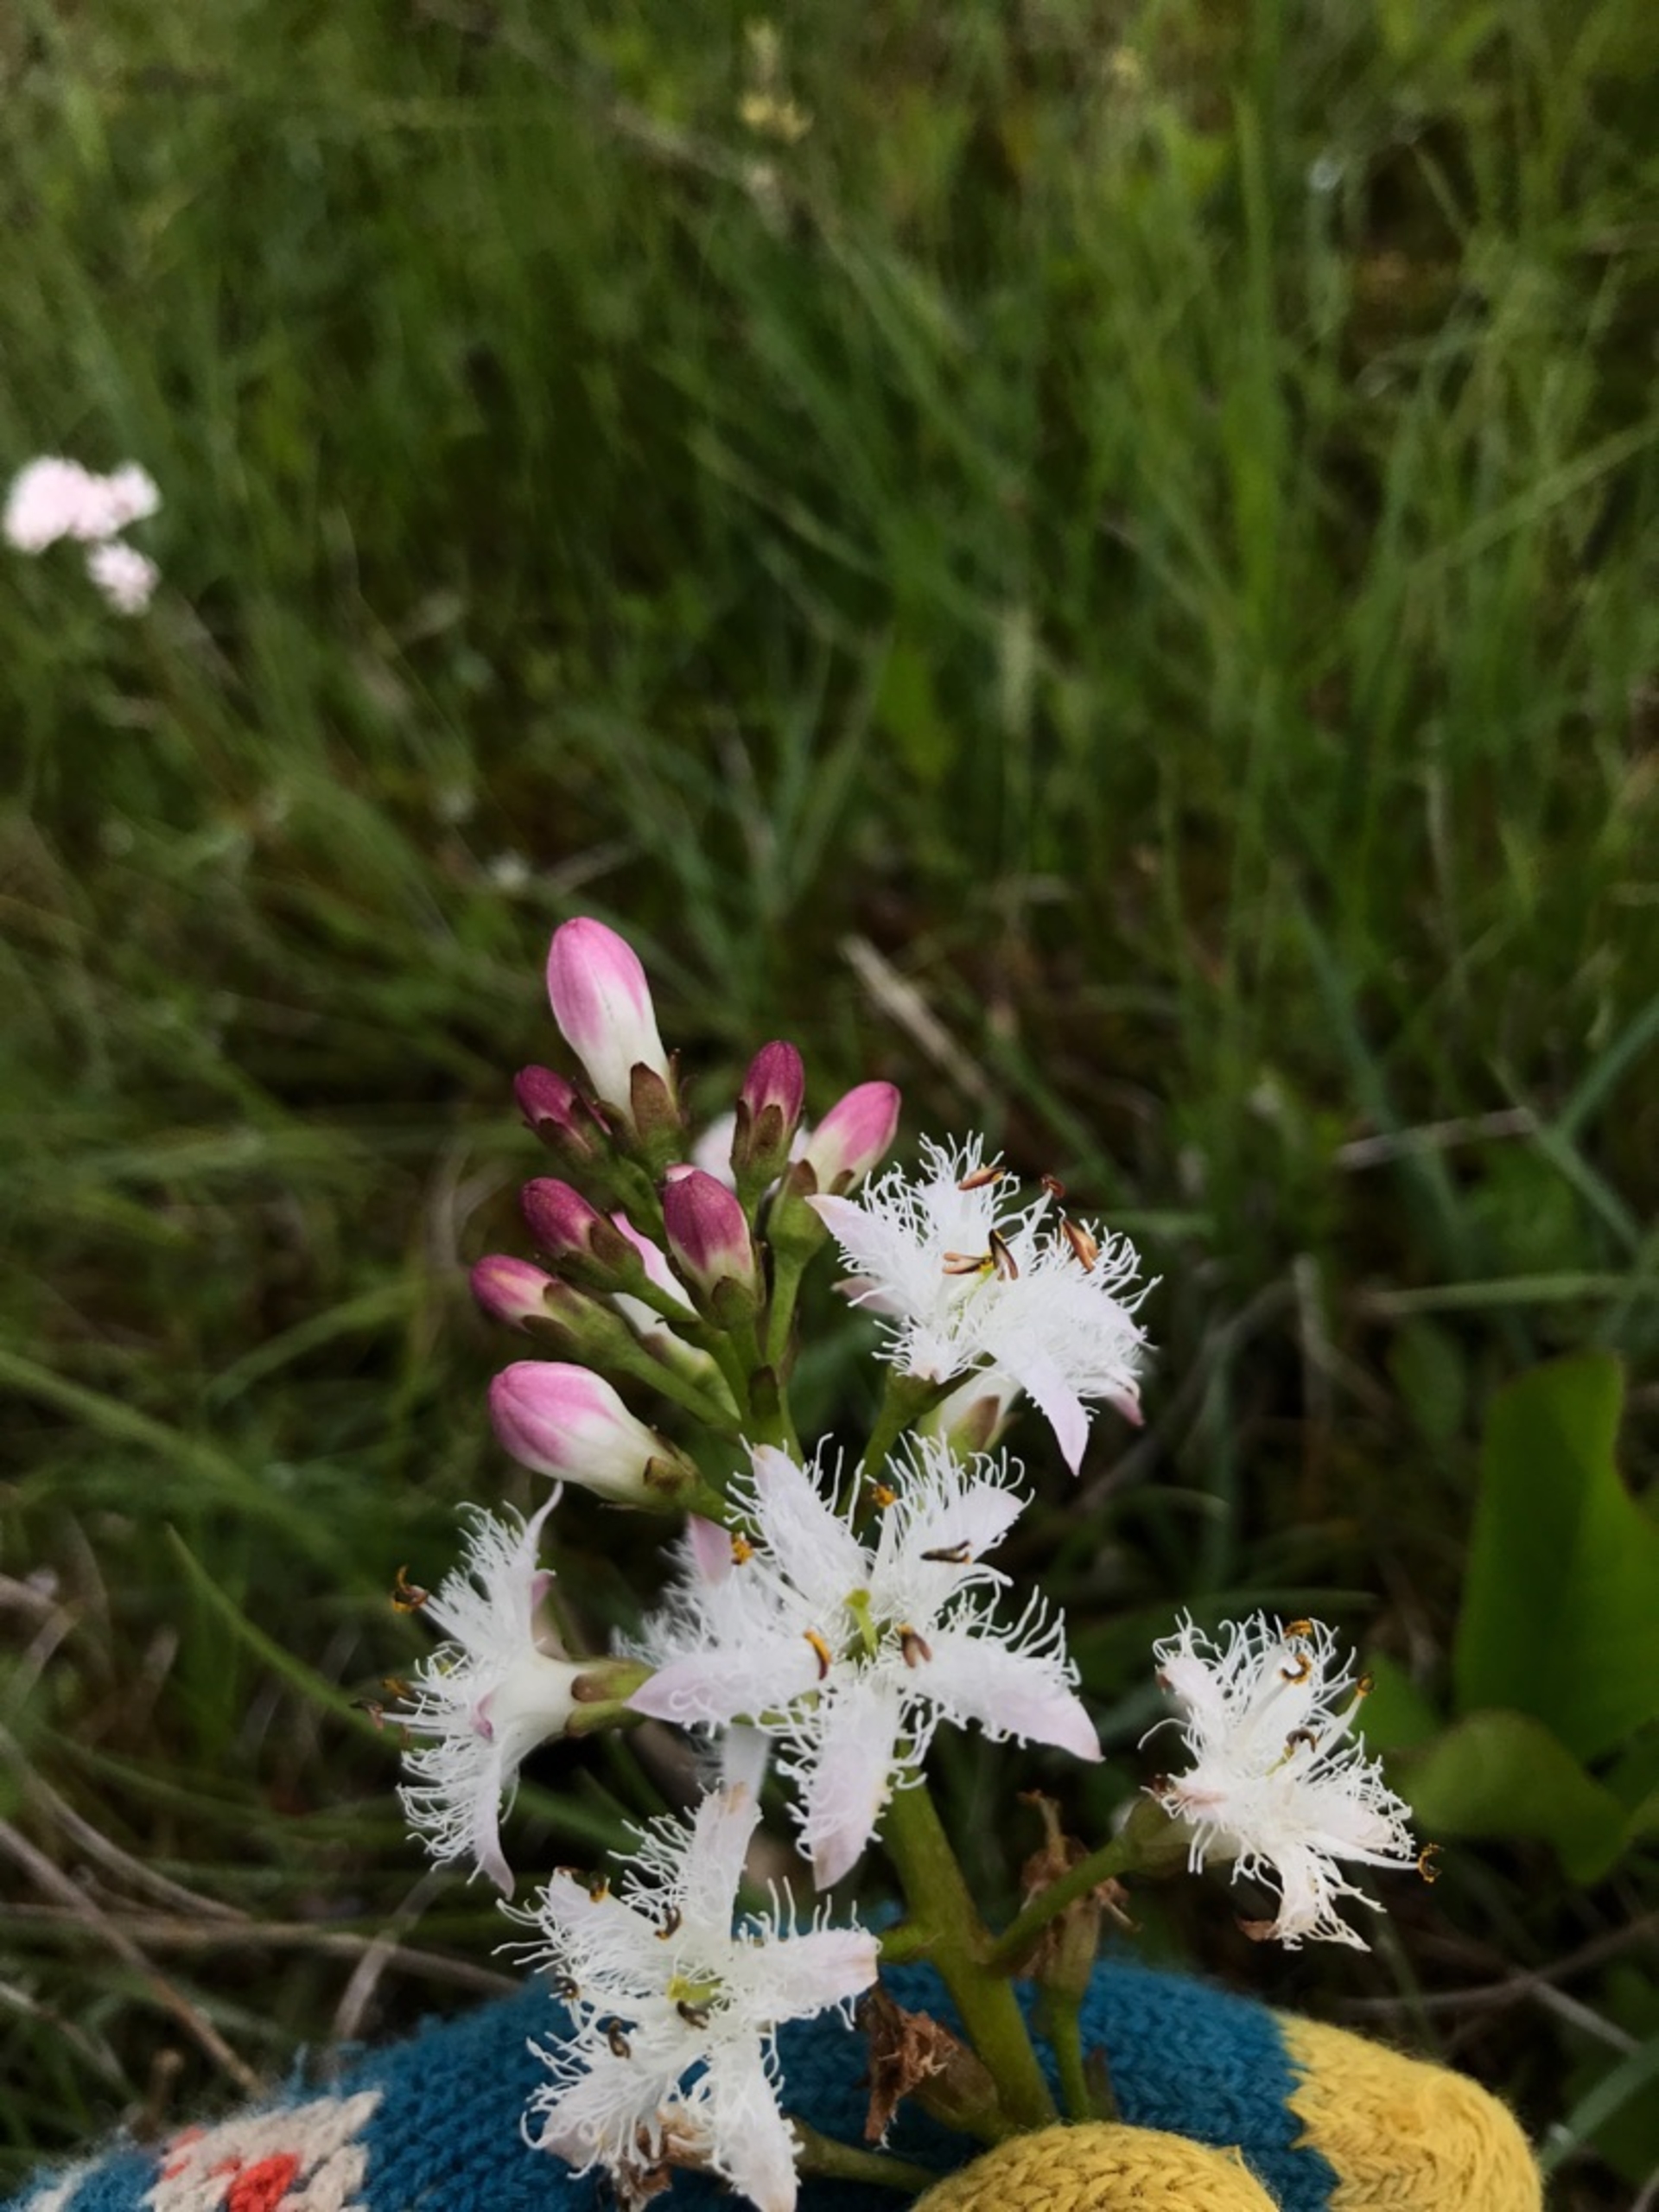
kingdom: Plantae
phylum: Tracheophyta
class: Magnoliopsida
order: Asterales
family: Menyanthaceae
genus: Menyanthes
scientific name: Menyanthes trifoliata
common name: Bukkeblad
